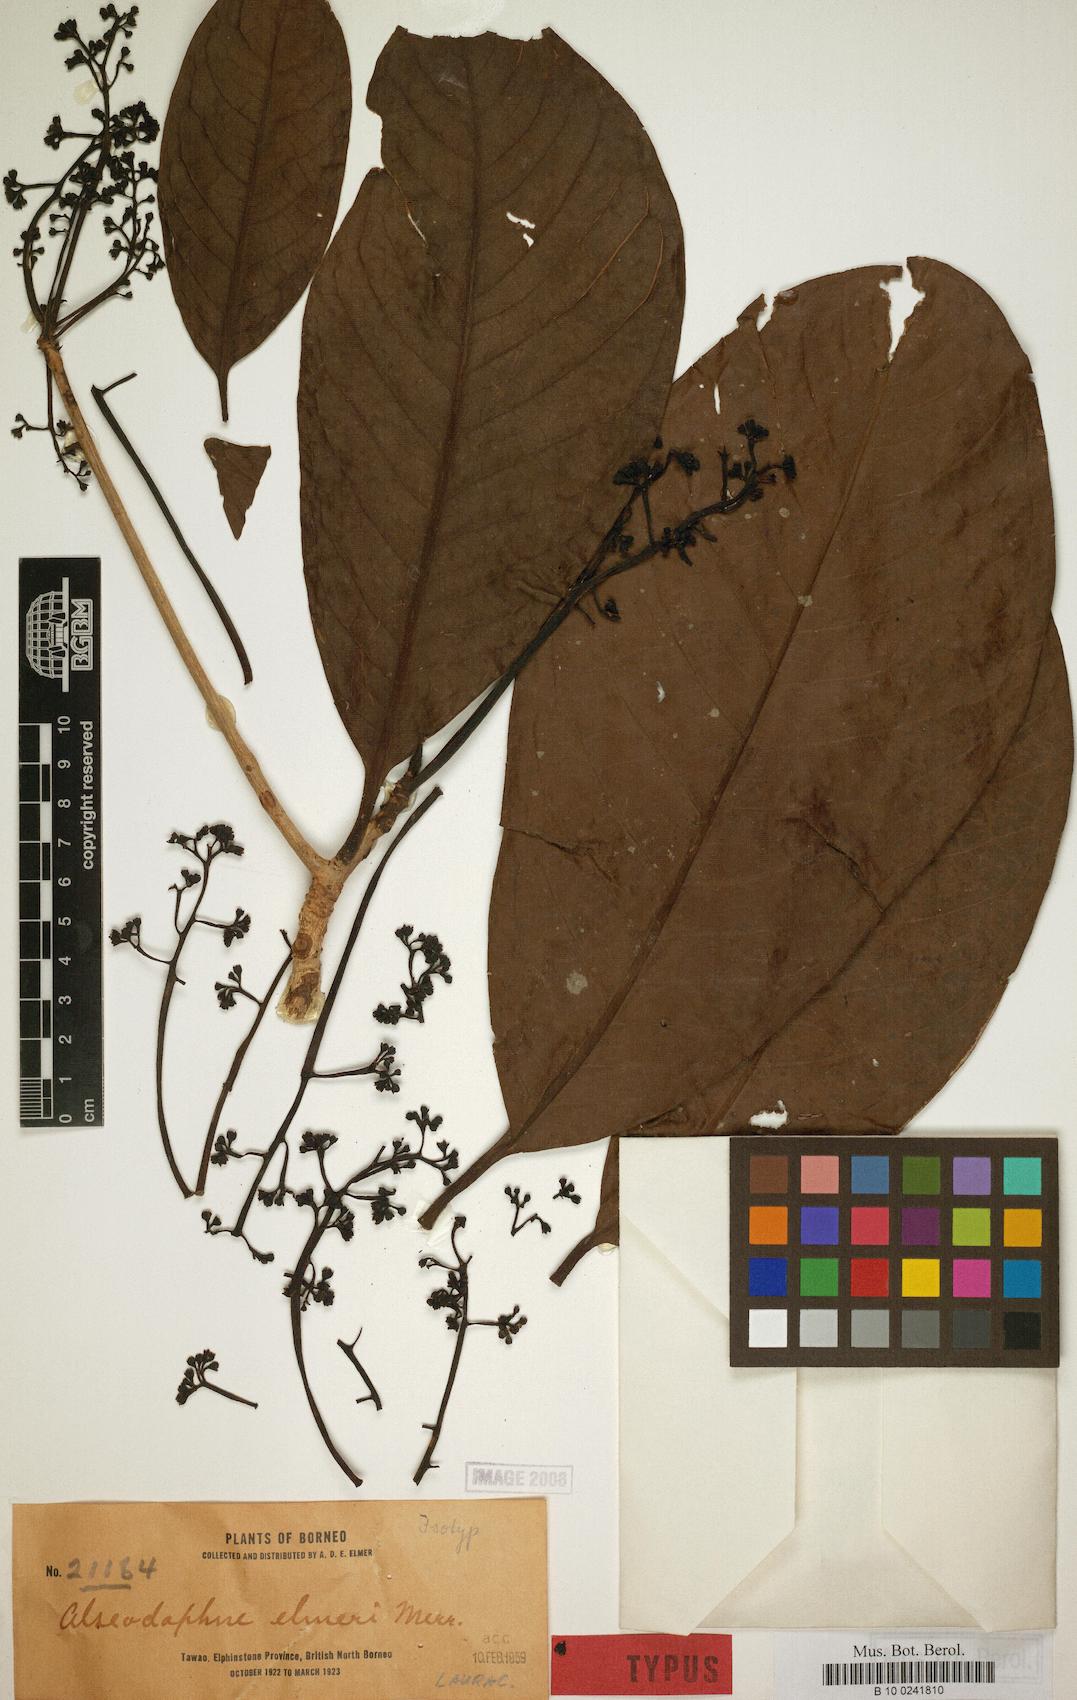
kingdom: Plantae
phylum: Tracheophyta
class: Magnoliopsida
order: Laurales
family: Lauraceae
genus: Alseodaphne
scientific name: Alseodaphne elmeri
